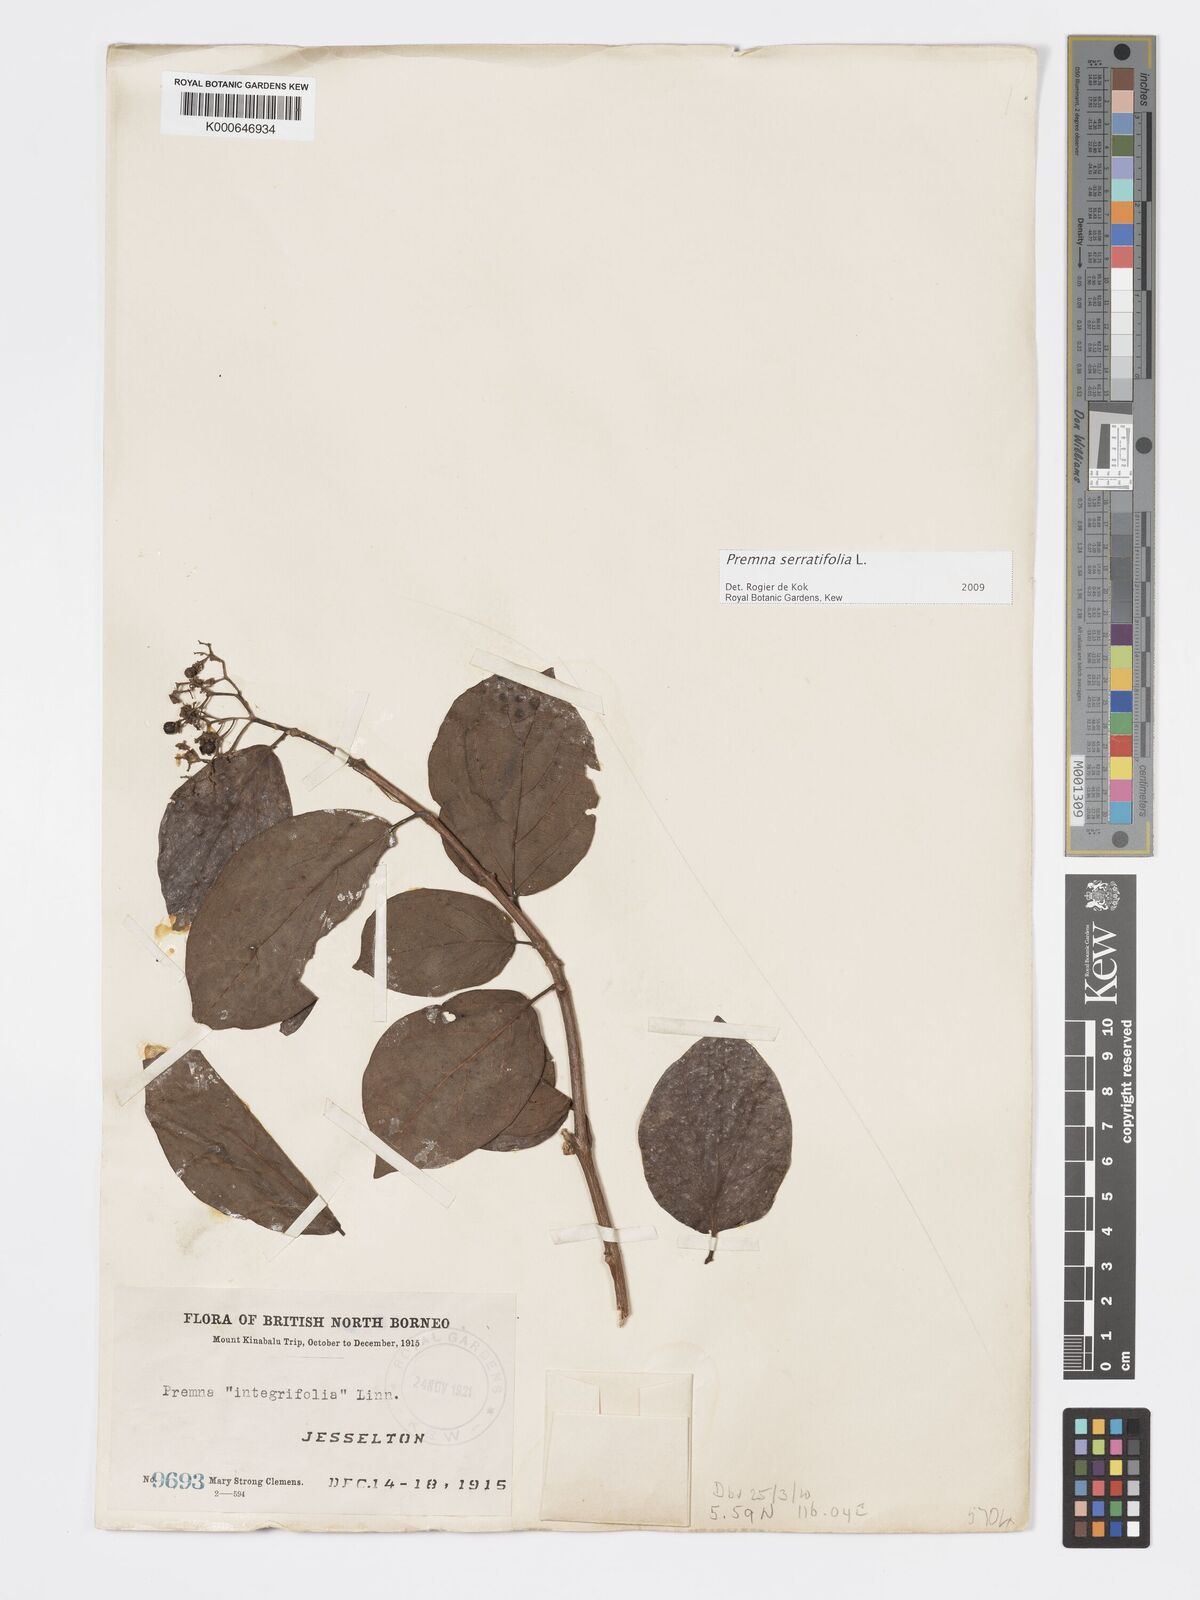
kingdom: Plantae
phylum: Tracheophyta
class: Magnoliopsida
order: Lamiales
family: Lamiaceae
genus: Premna
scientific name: Premna serratifolia
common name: Bastard guelder
